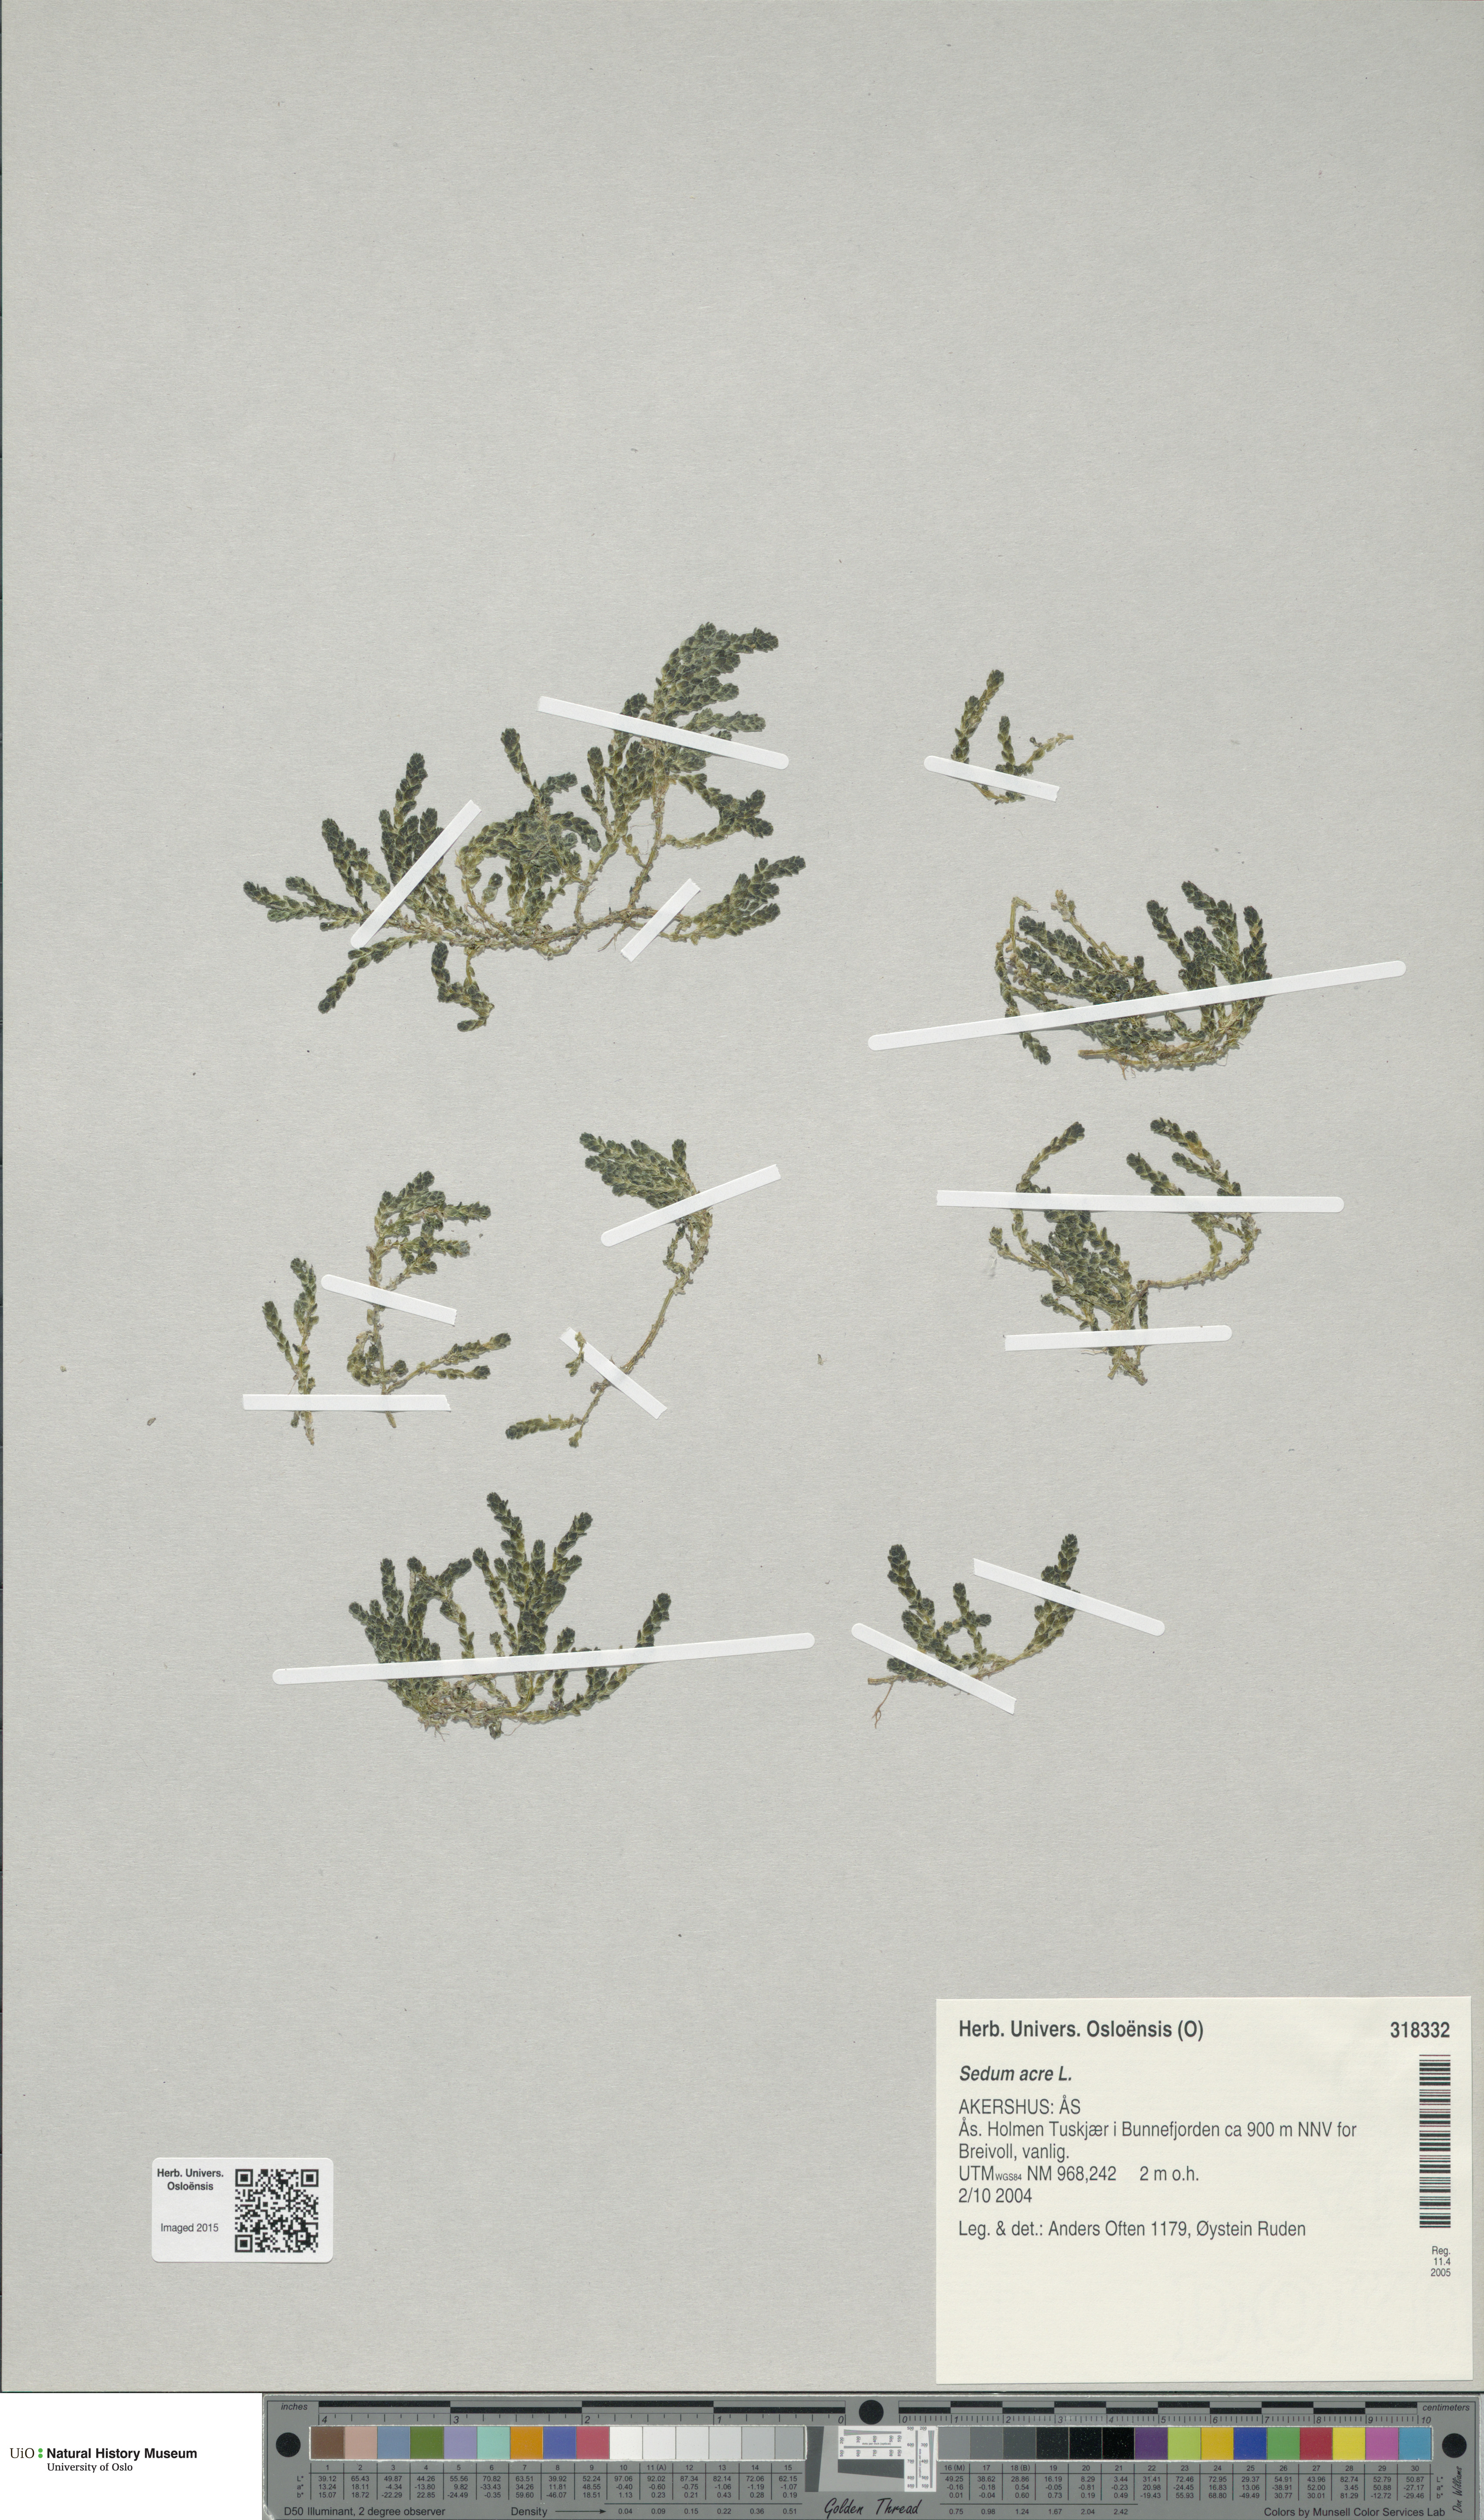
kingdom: Plantae
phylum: Tracheophyta
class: Magnoliopsida
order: Saxifragales
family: Crassulaceae
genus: Sedum
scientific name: Sedum acre
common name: Biting stonecrop
